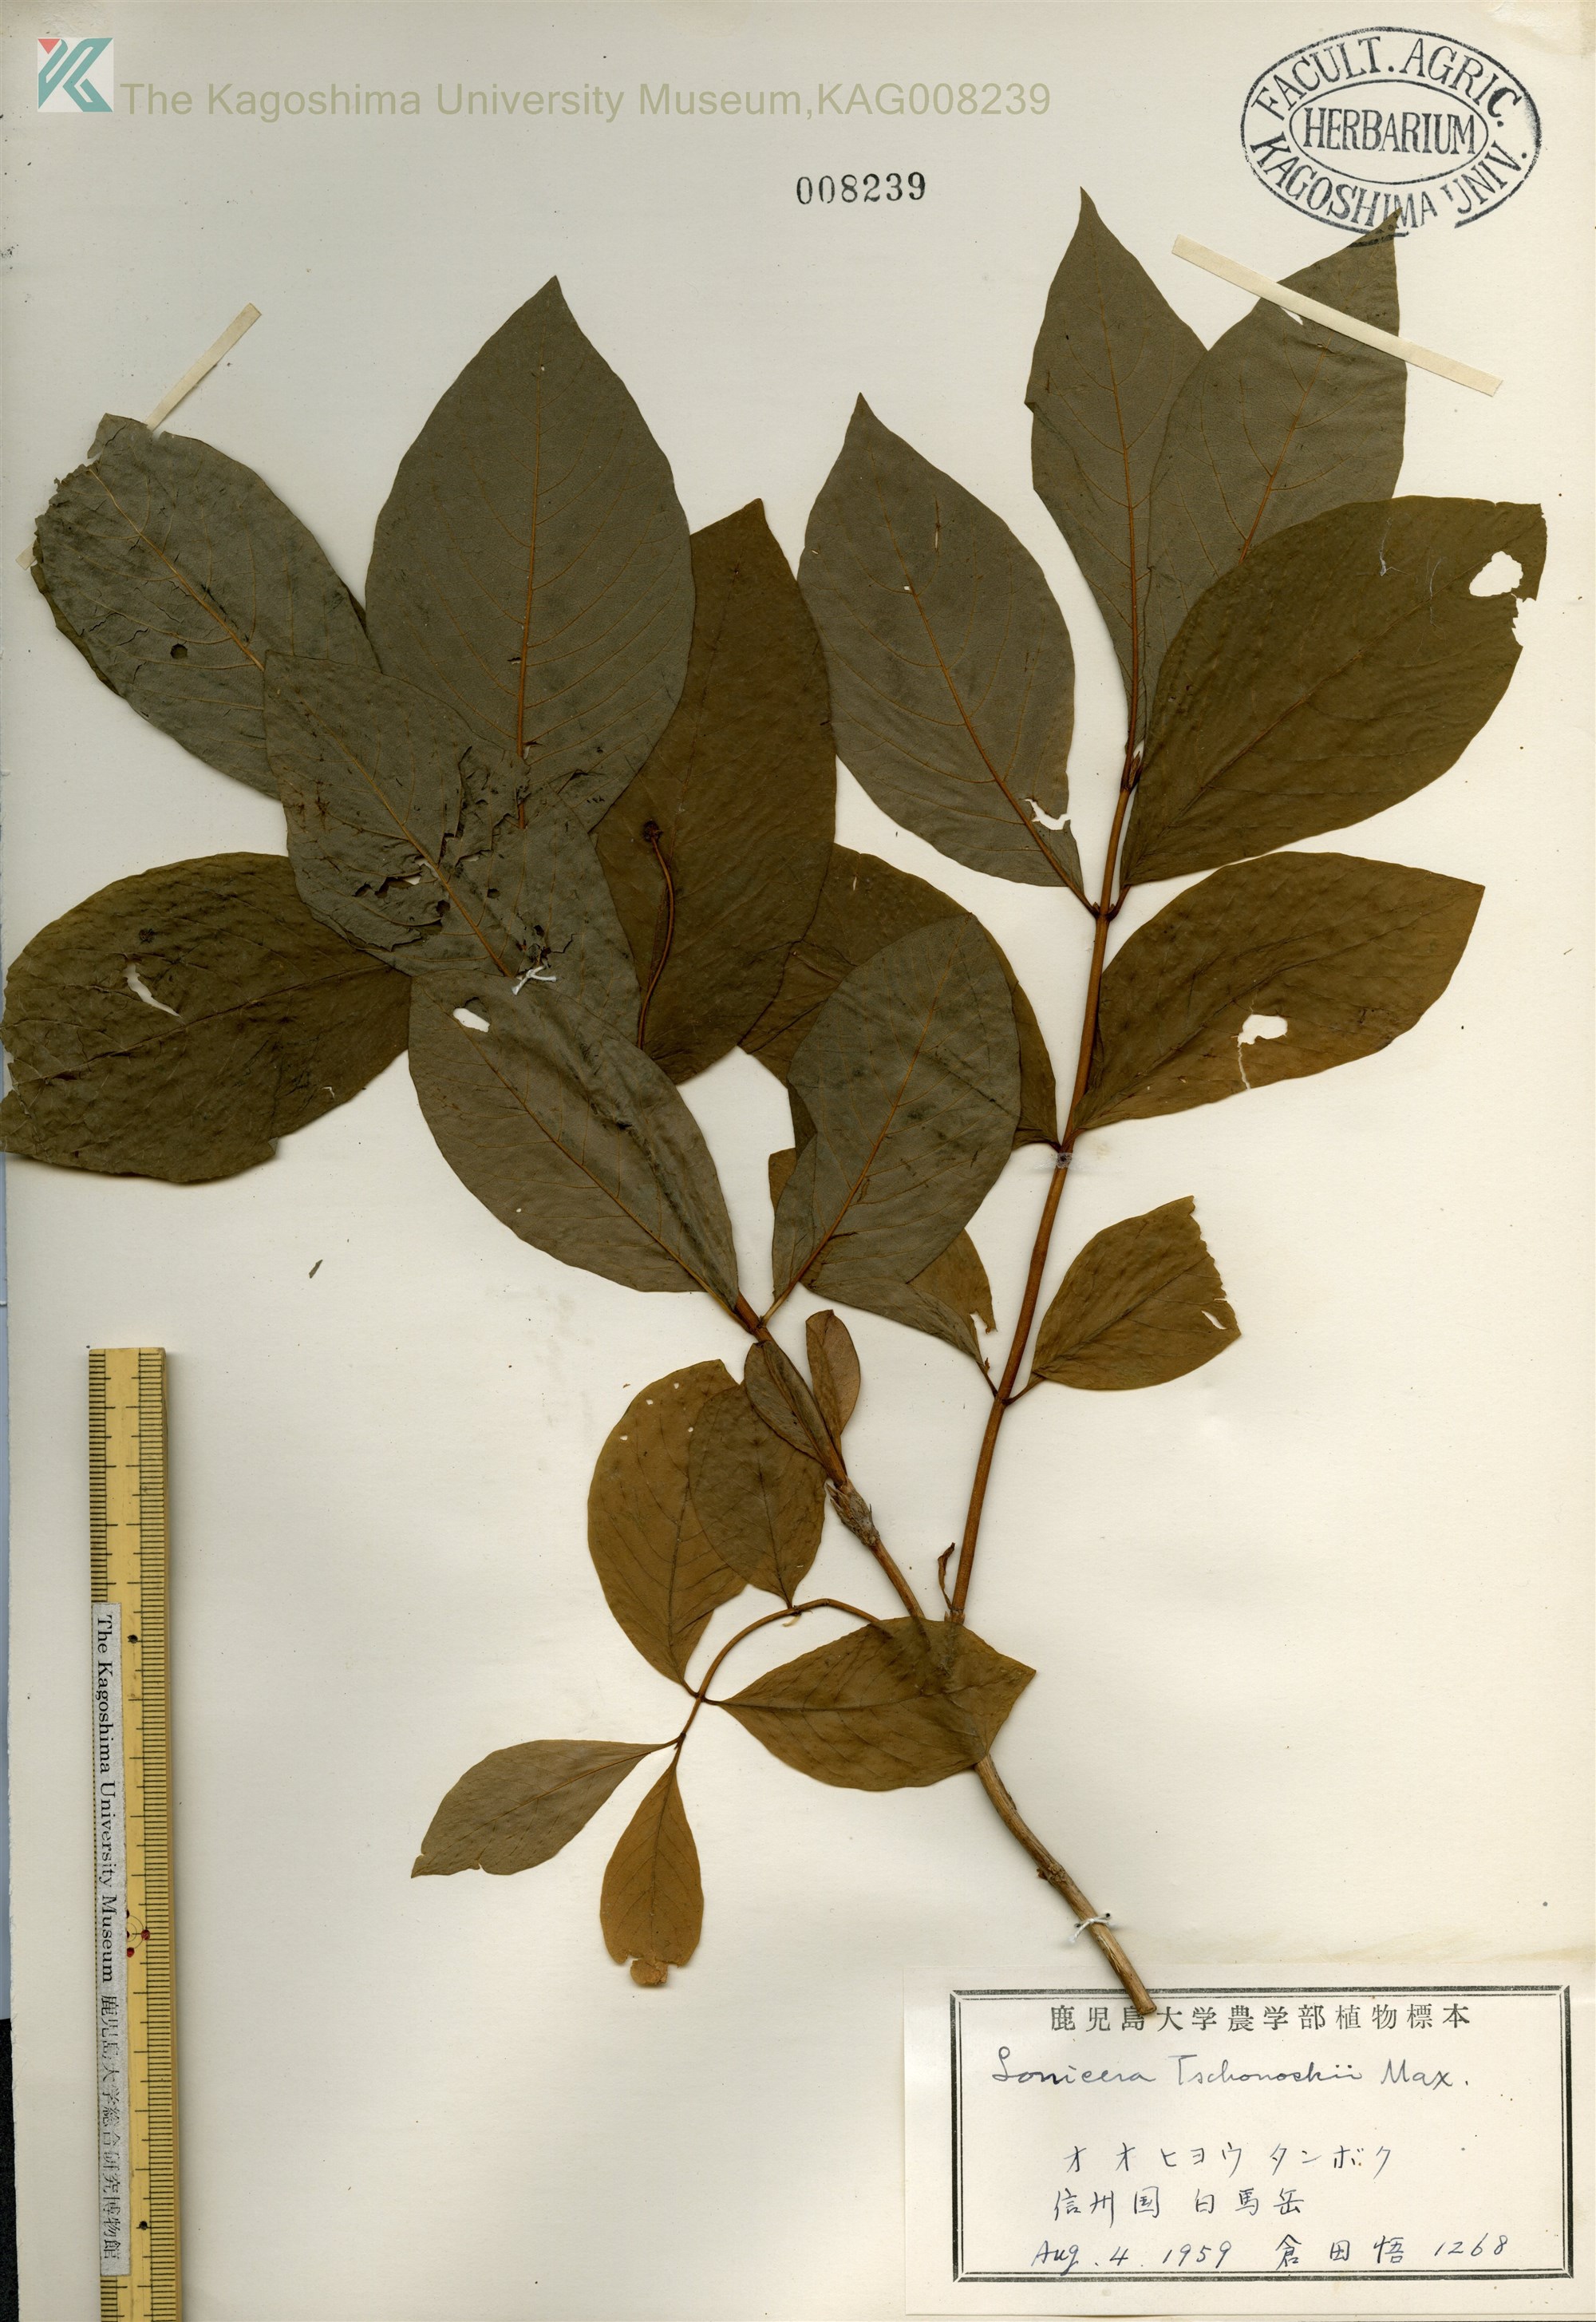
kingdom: Plantae
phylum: Tracheophyta
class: Magnoliopsida
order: Dipsacales
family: Caprifoliaceae
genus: Lonicera
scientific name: Lonicera
